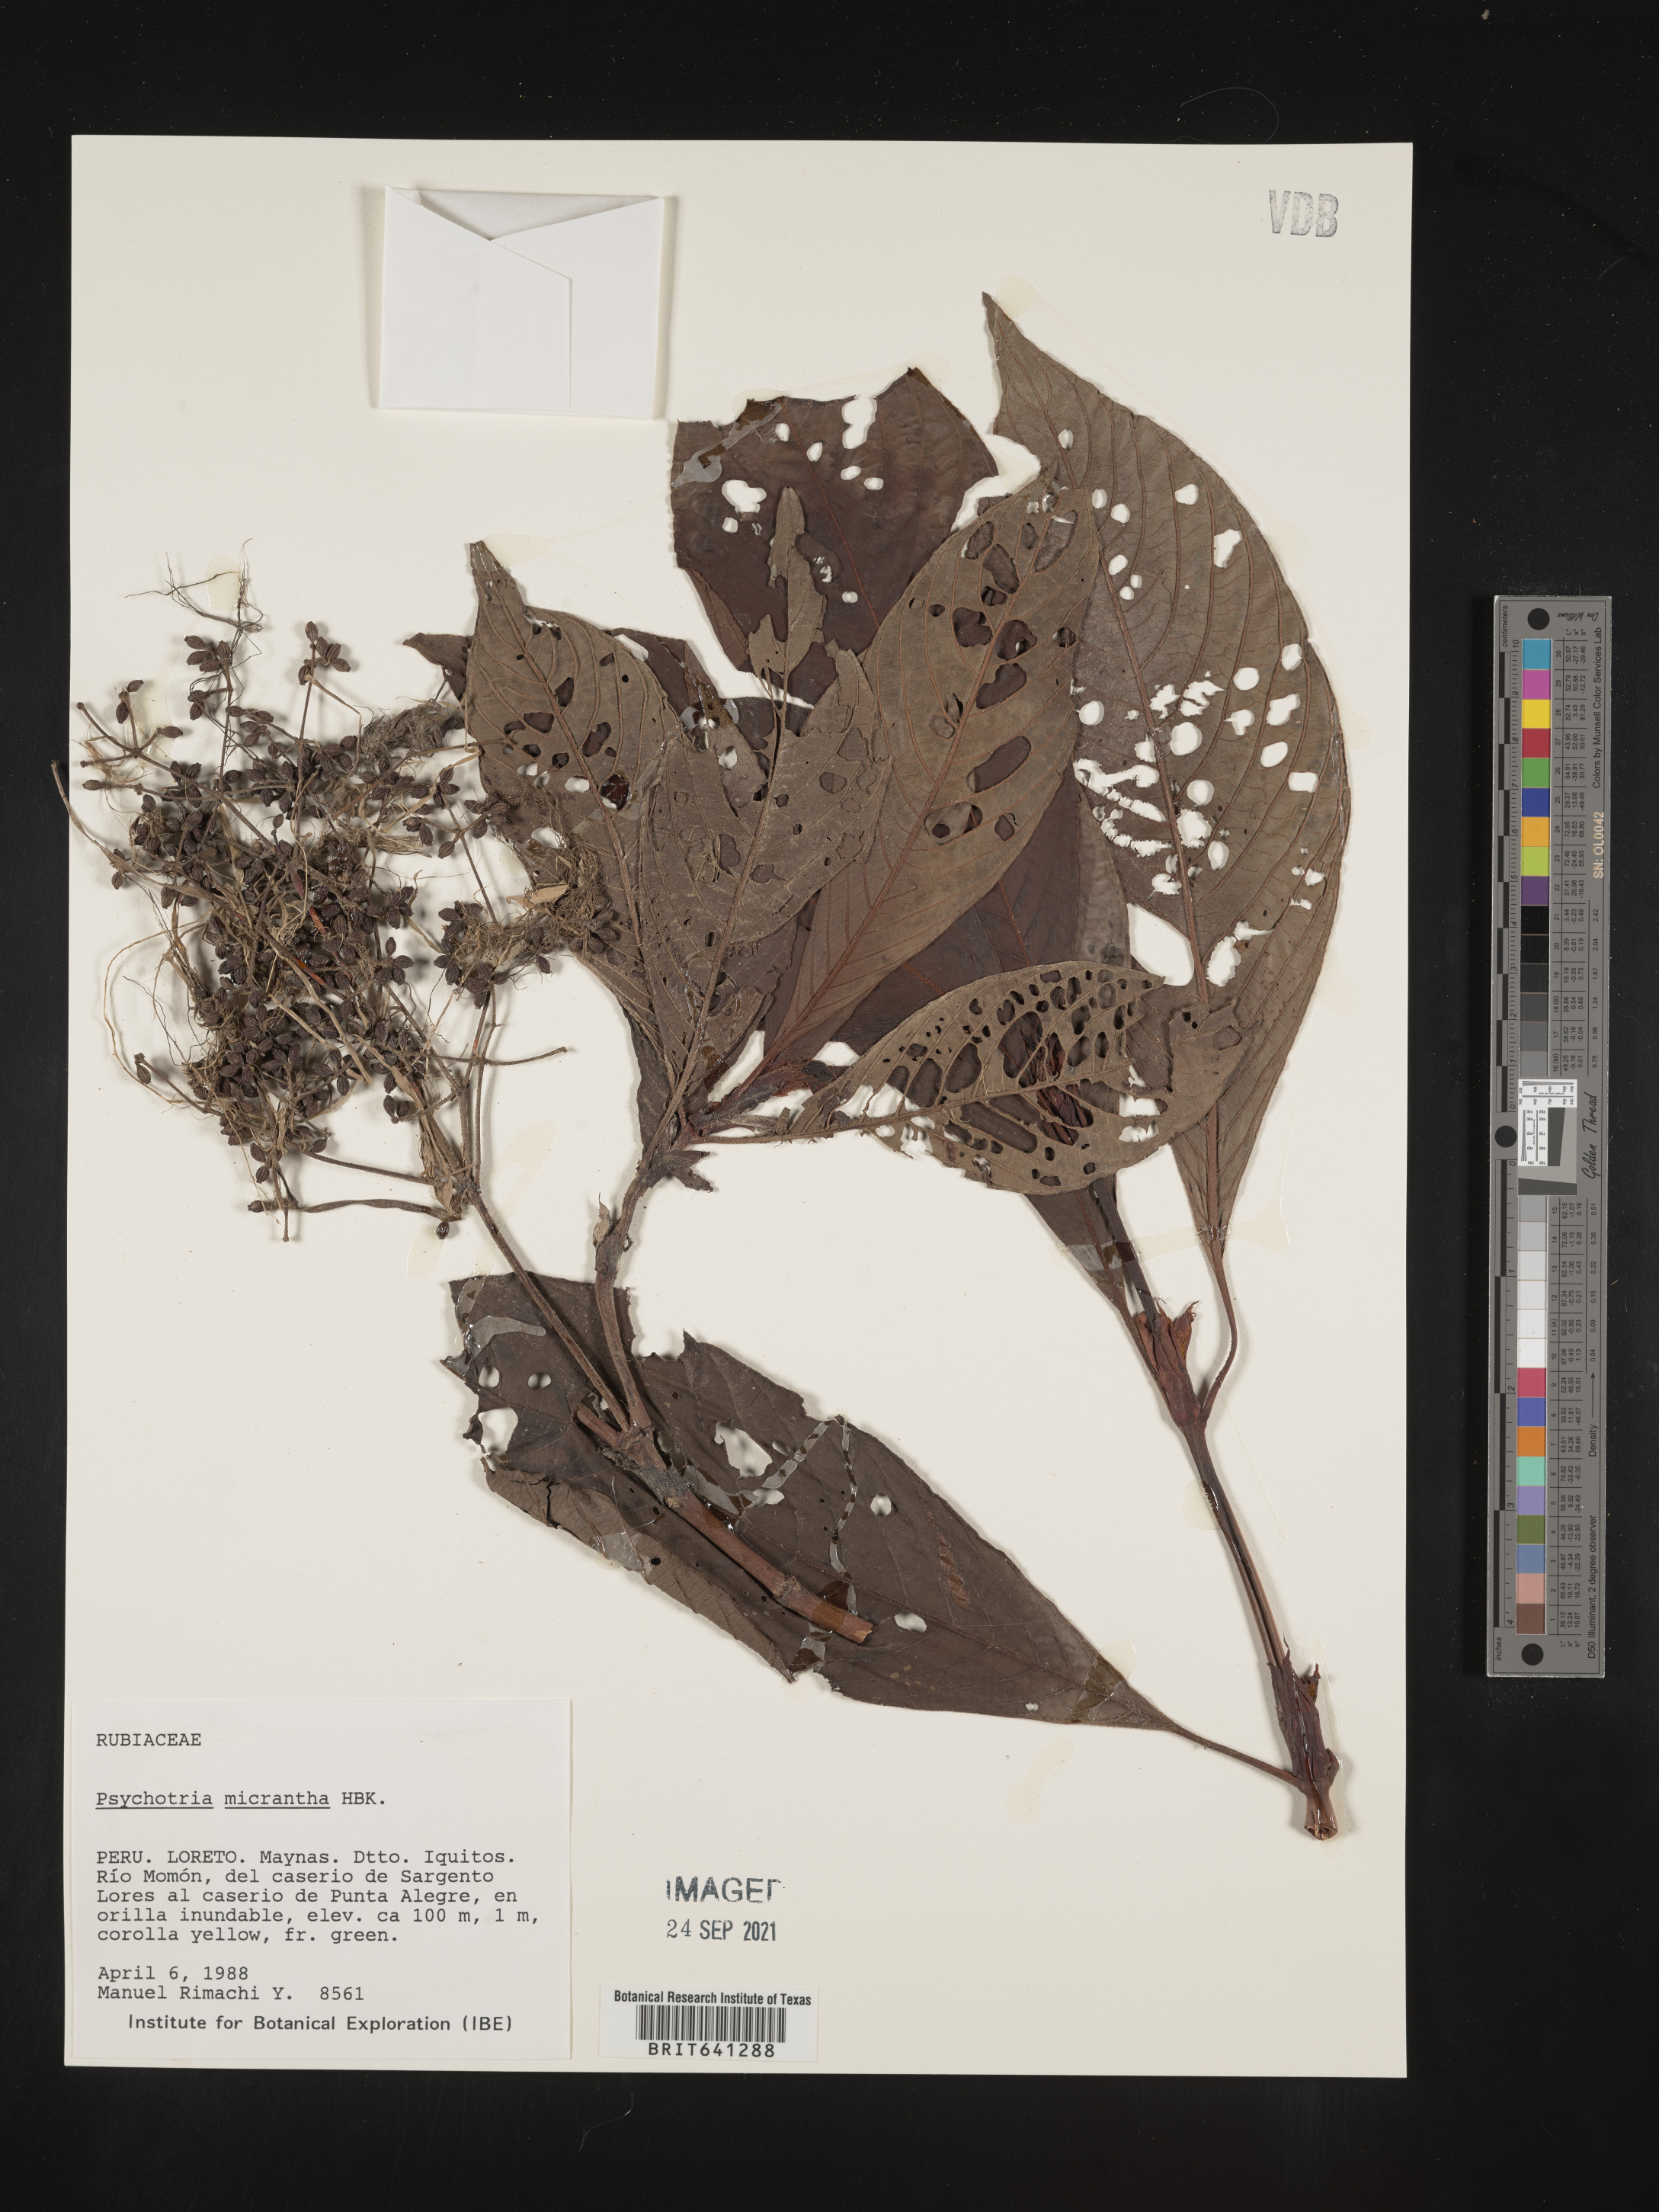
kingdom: Plantae
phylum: Tracheophyta
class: Magnoliopsida
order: Gentianales
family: Rubiaceae
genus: Psychotria
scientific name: Psychotria
